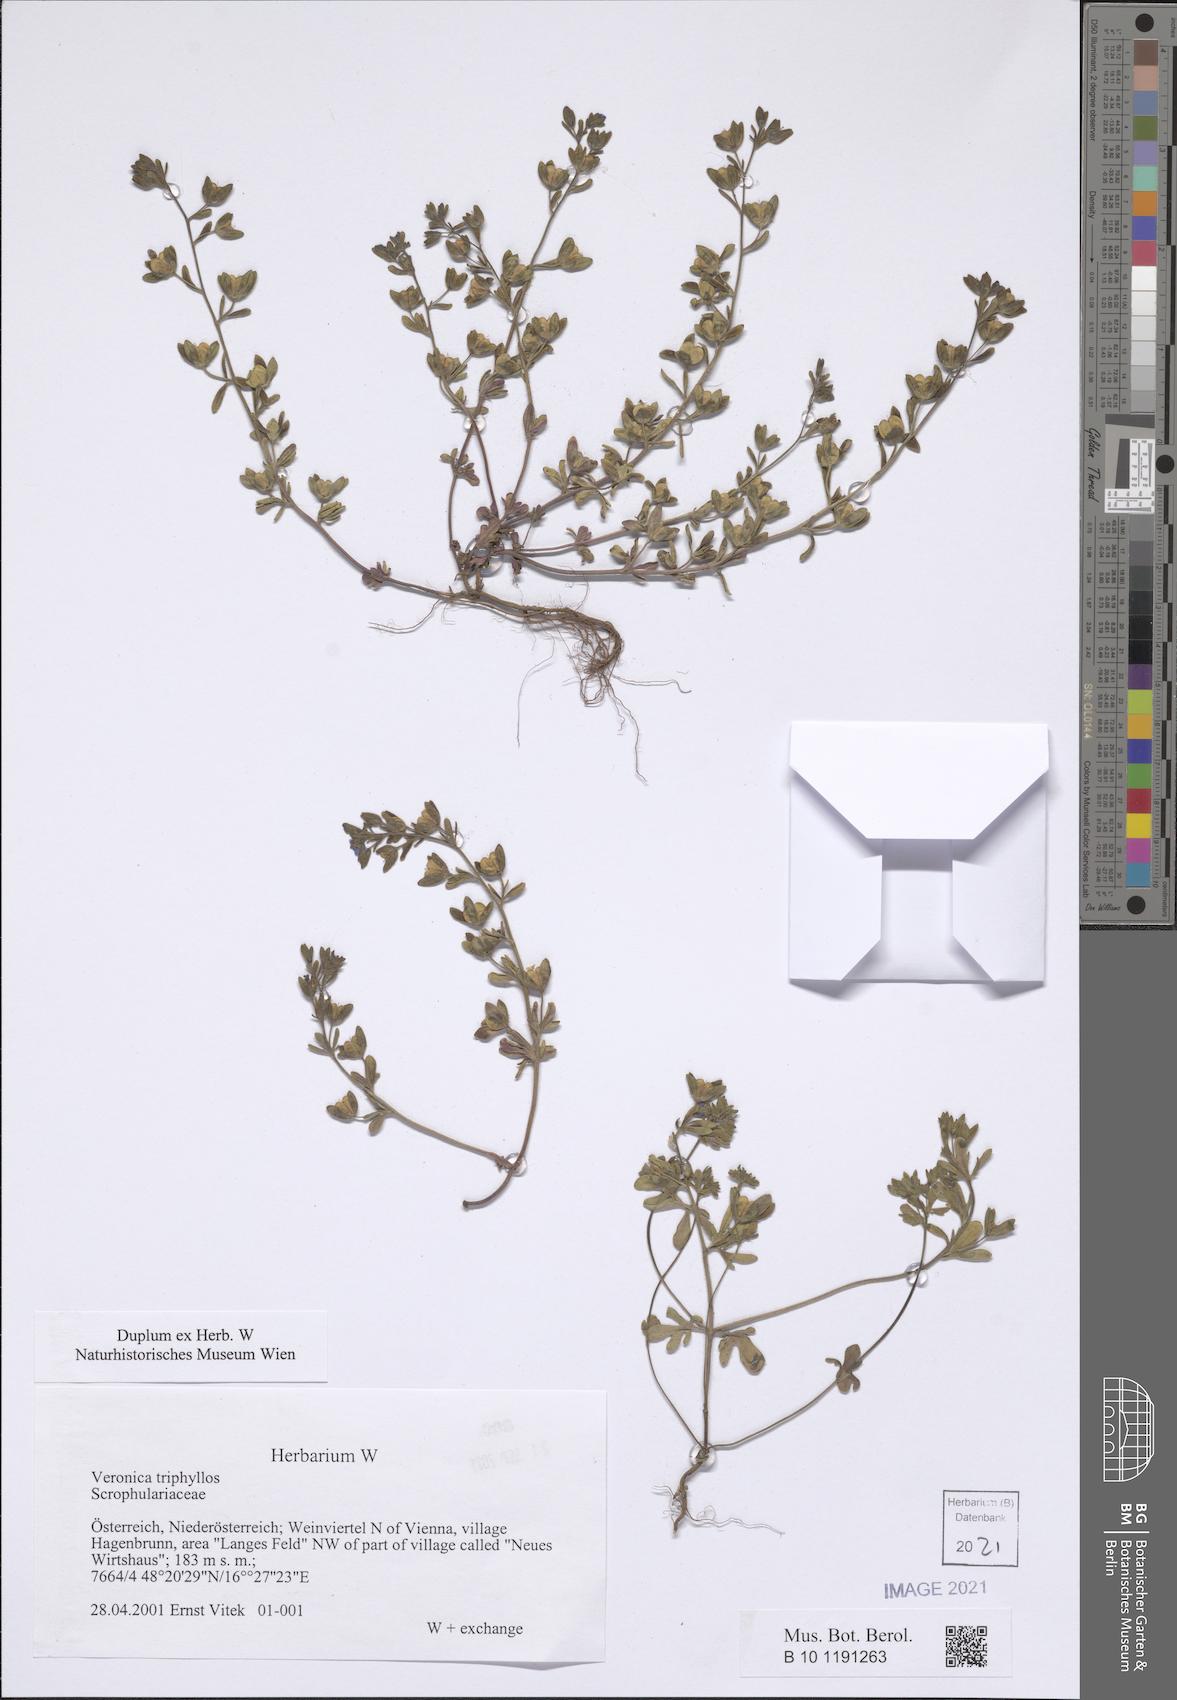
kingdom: Plantae
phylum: Tracheophyta
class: Magnoliopsida
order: Lamiales
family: Plantaginaceae
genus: Veronica
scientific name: Veronica triphyllos
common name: Fingered speedwell
